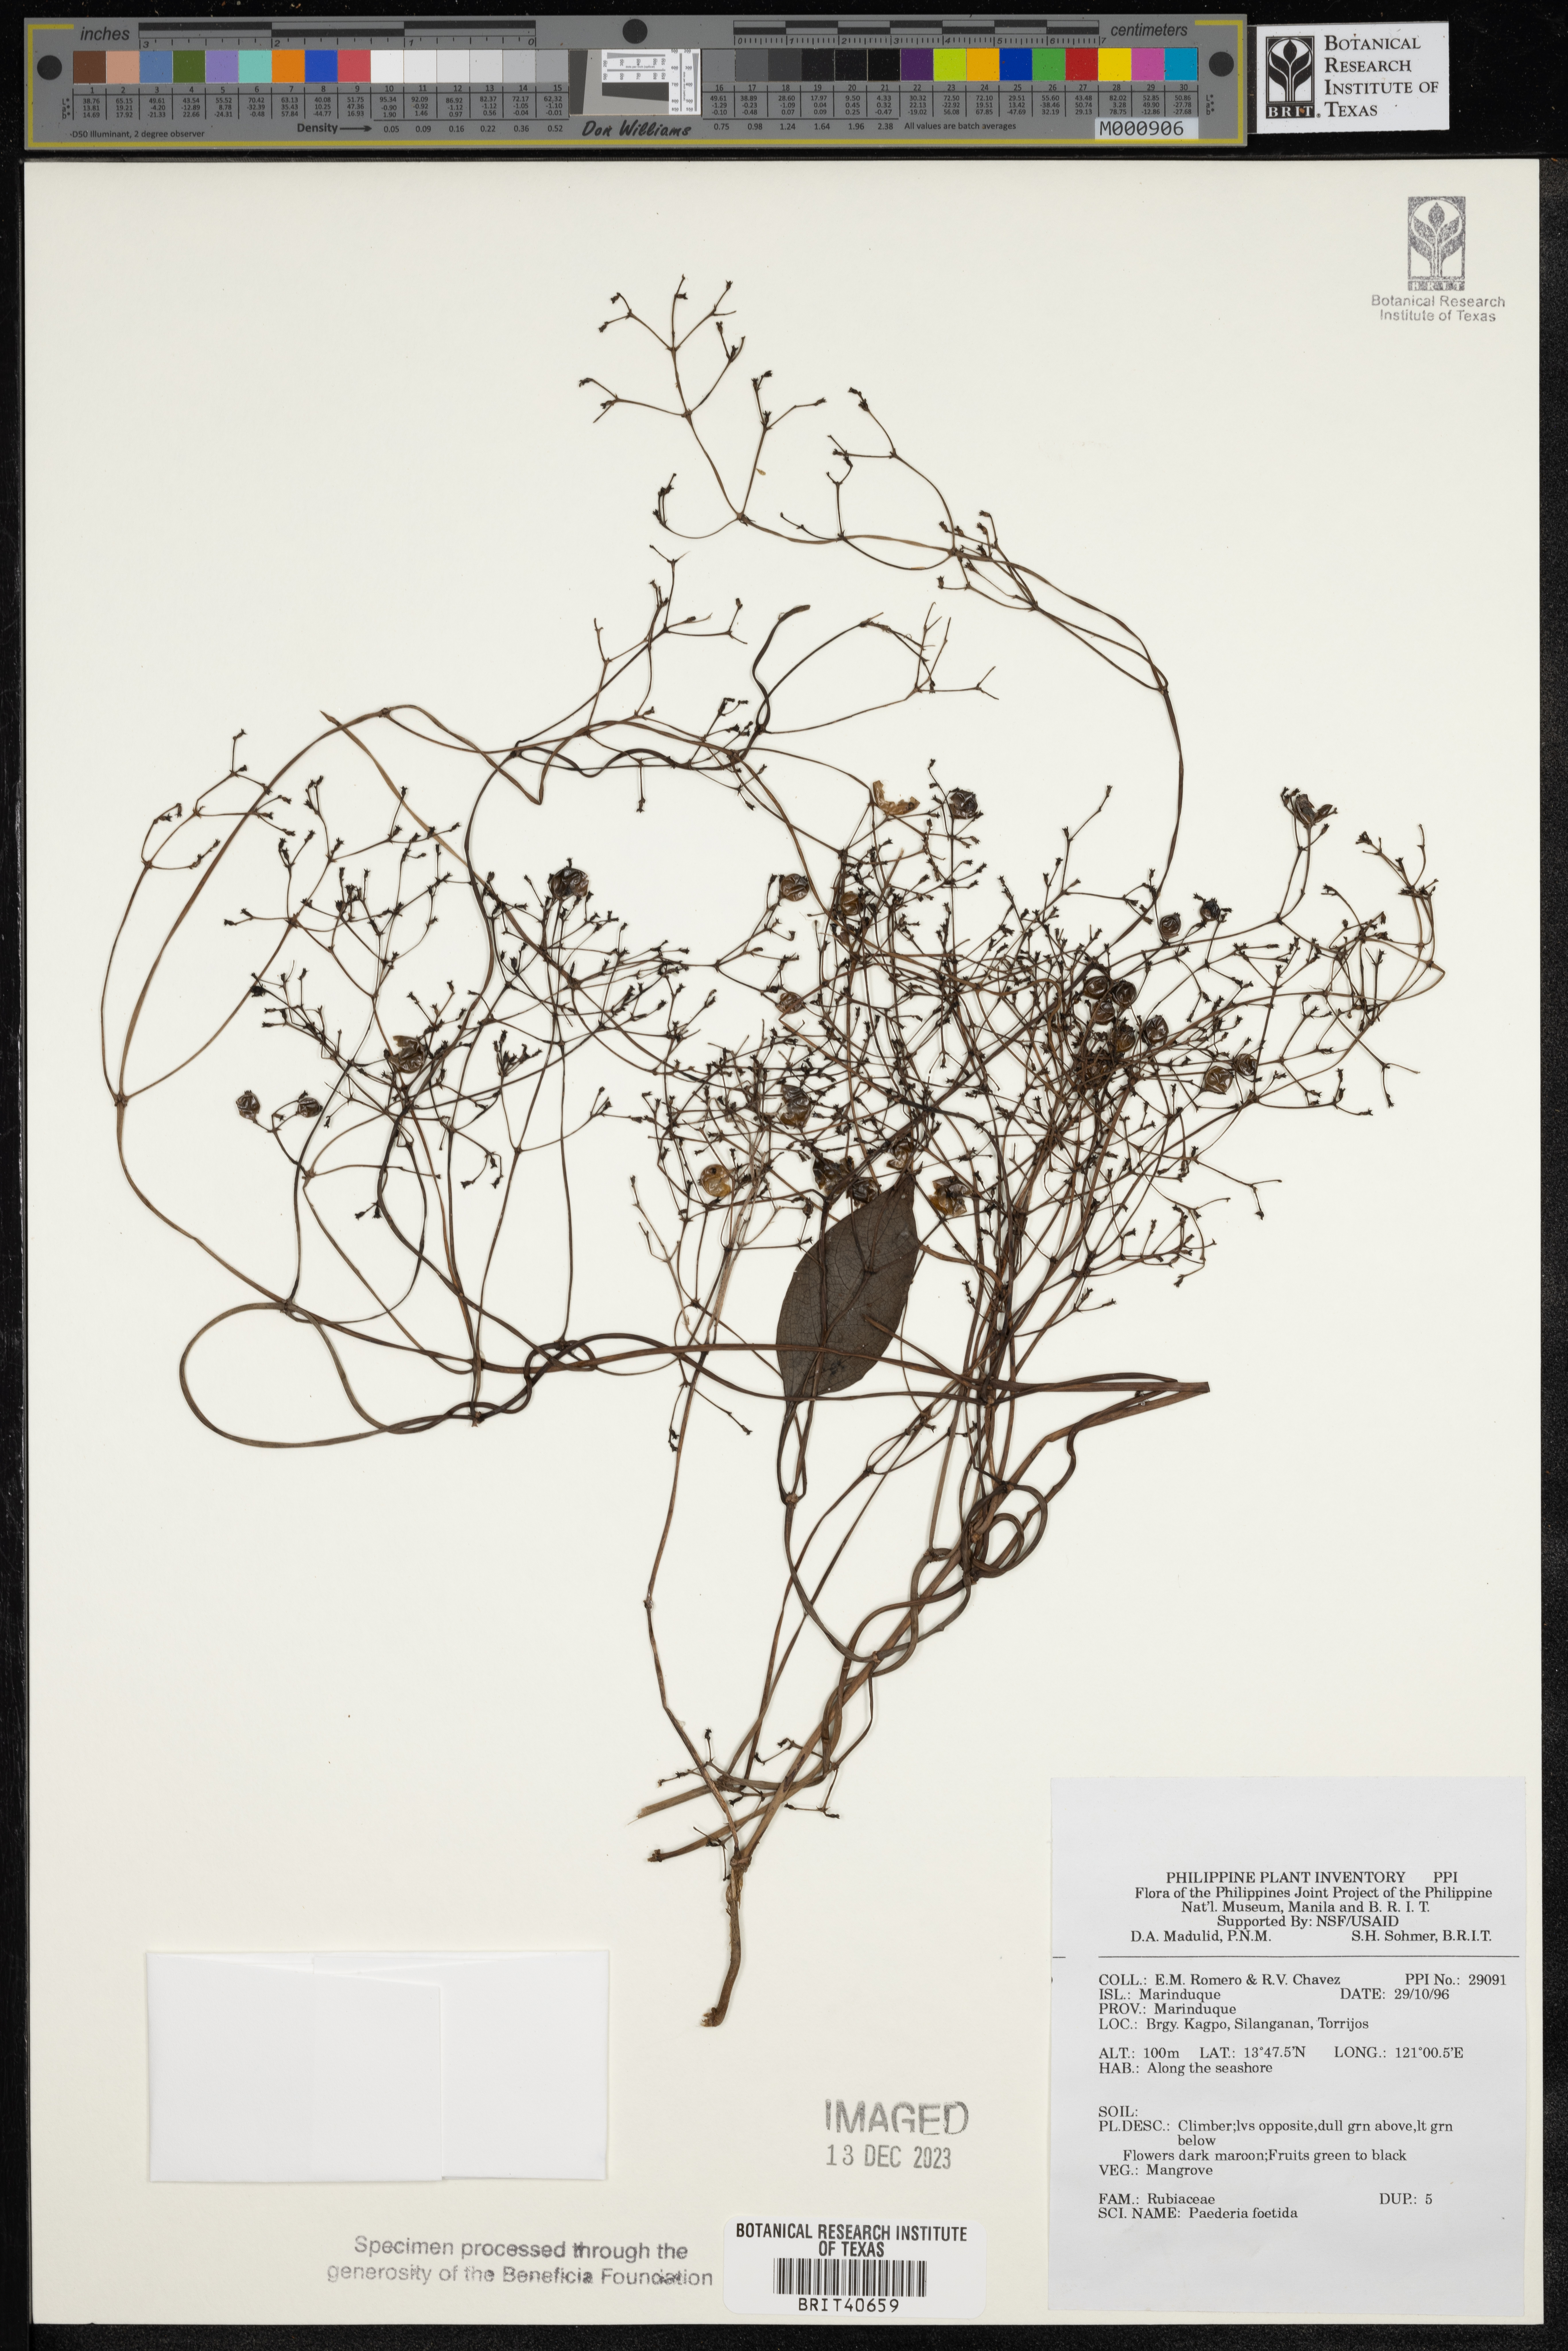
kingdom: Plantae
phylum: Tracheophyta
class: Magnoliopsida
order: Gentianales
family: Rubiaceae
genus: Paederia
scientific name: Paederia foetida
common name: Stinkvine
